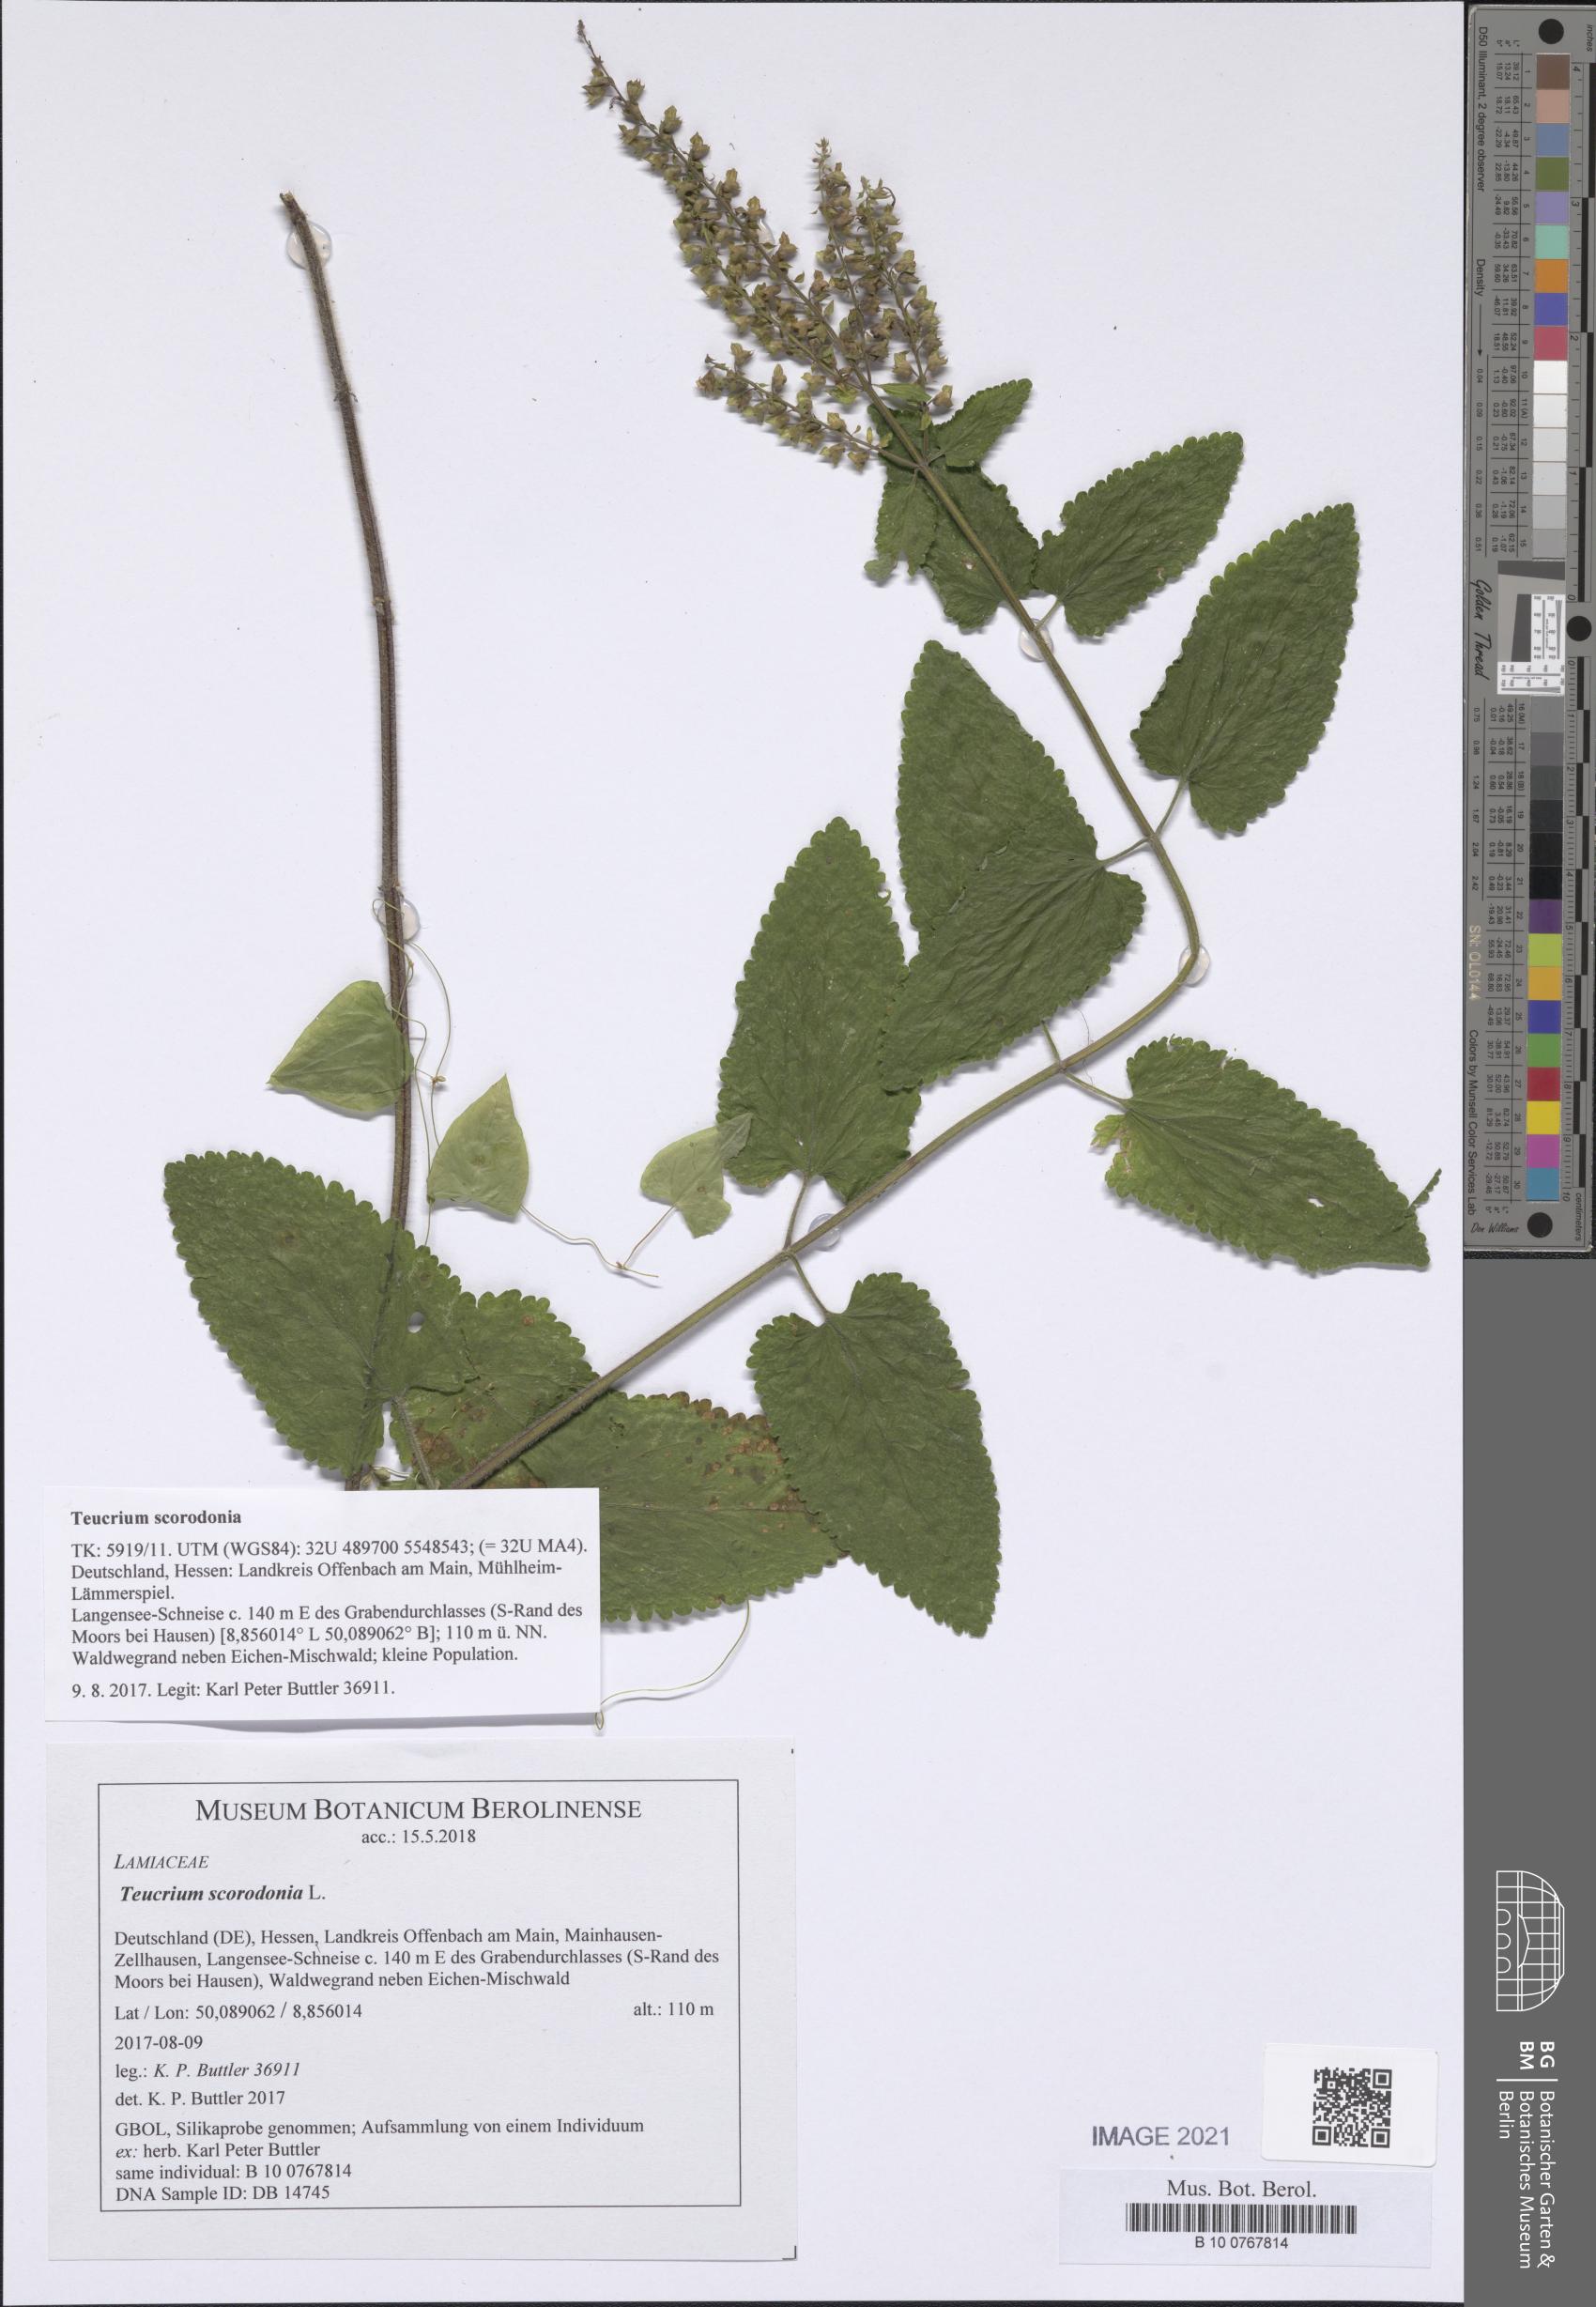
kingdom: Plantae
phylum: Tracheophyta
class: Magnoliopsida
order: Lamiales
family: Lamiaceae
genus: Teucrium
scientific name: Teucrium scorodonia
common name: Woodland germander
